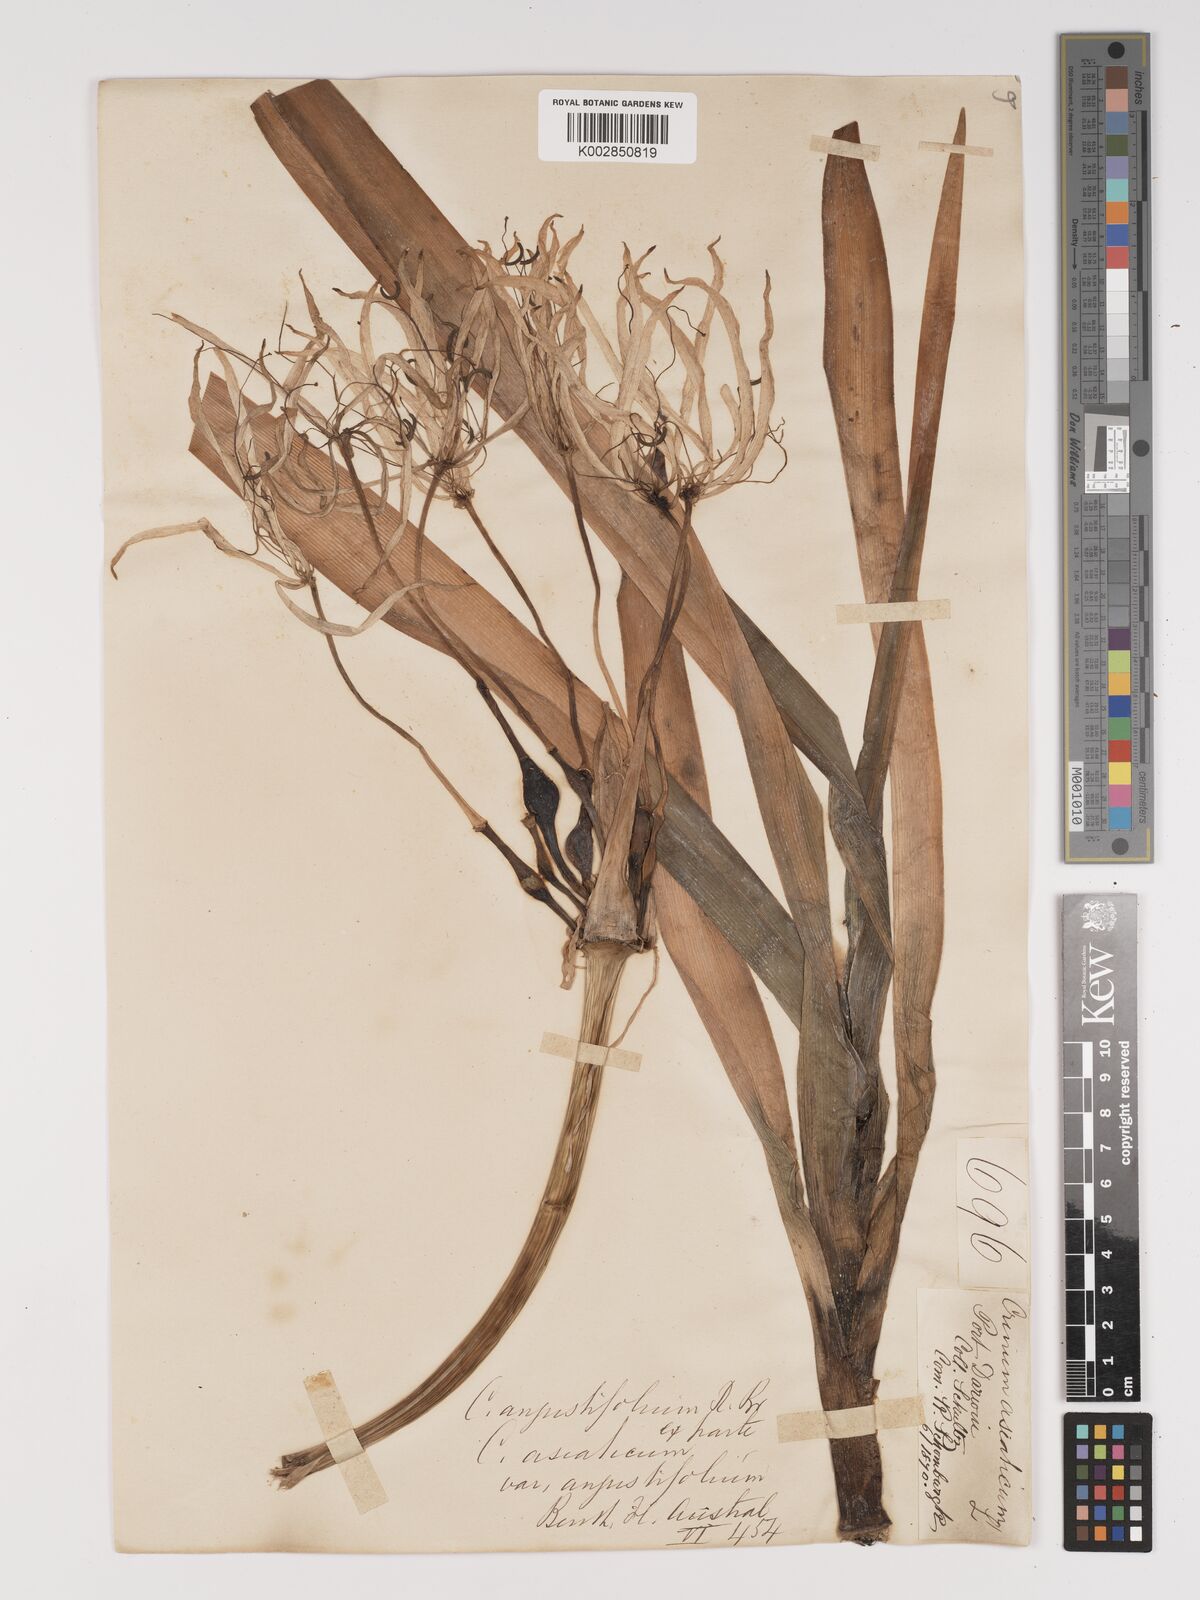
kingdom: Plantae
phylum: Tracheophyta
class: Liliopsida
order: Asparagales
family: Amaryllidaceae
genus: Crinum
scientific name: Crinum arenarium
